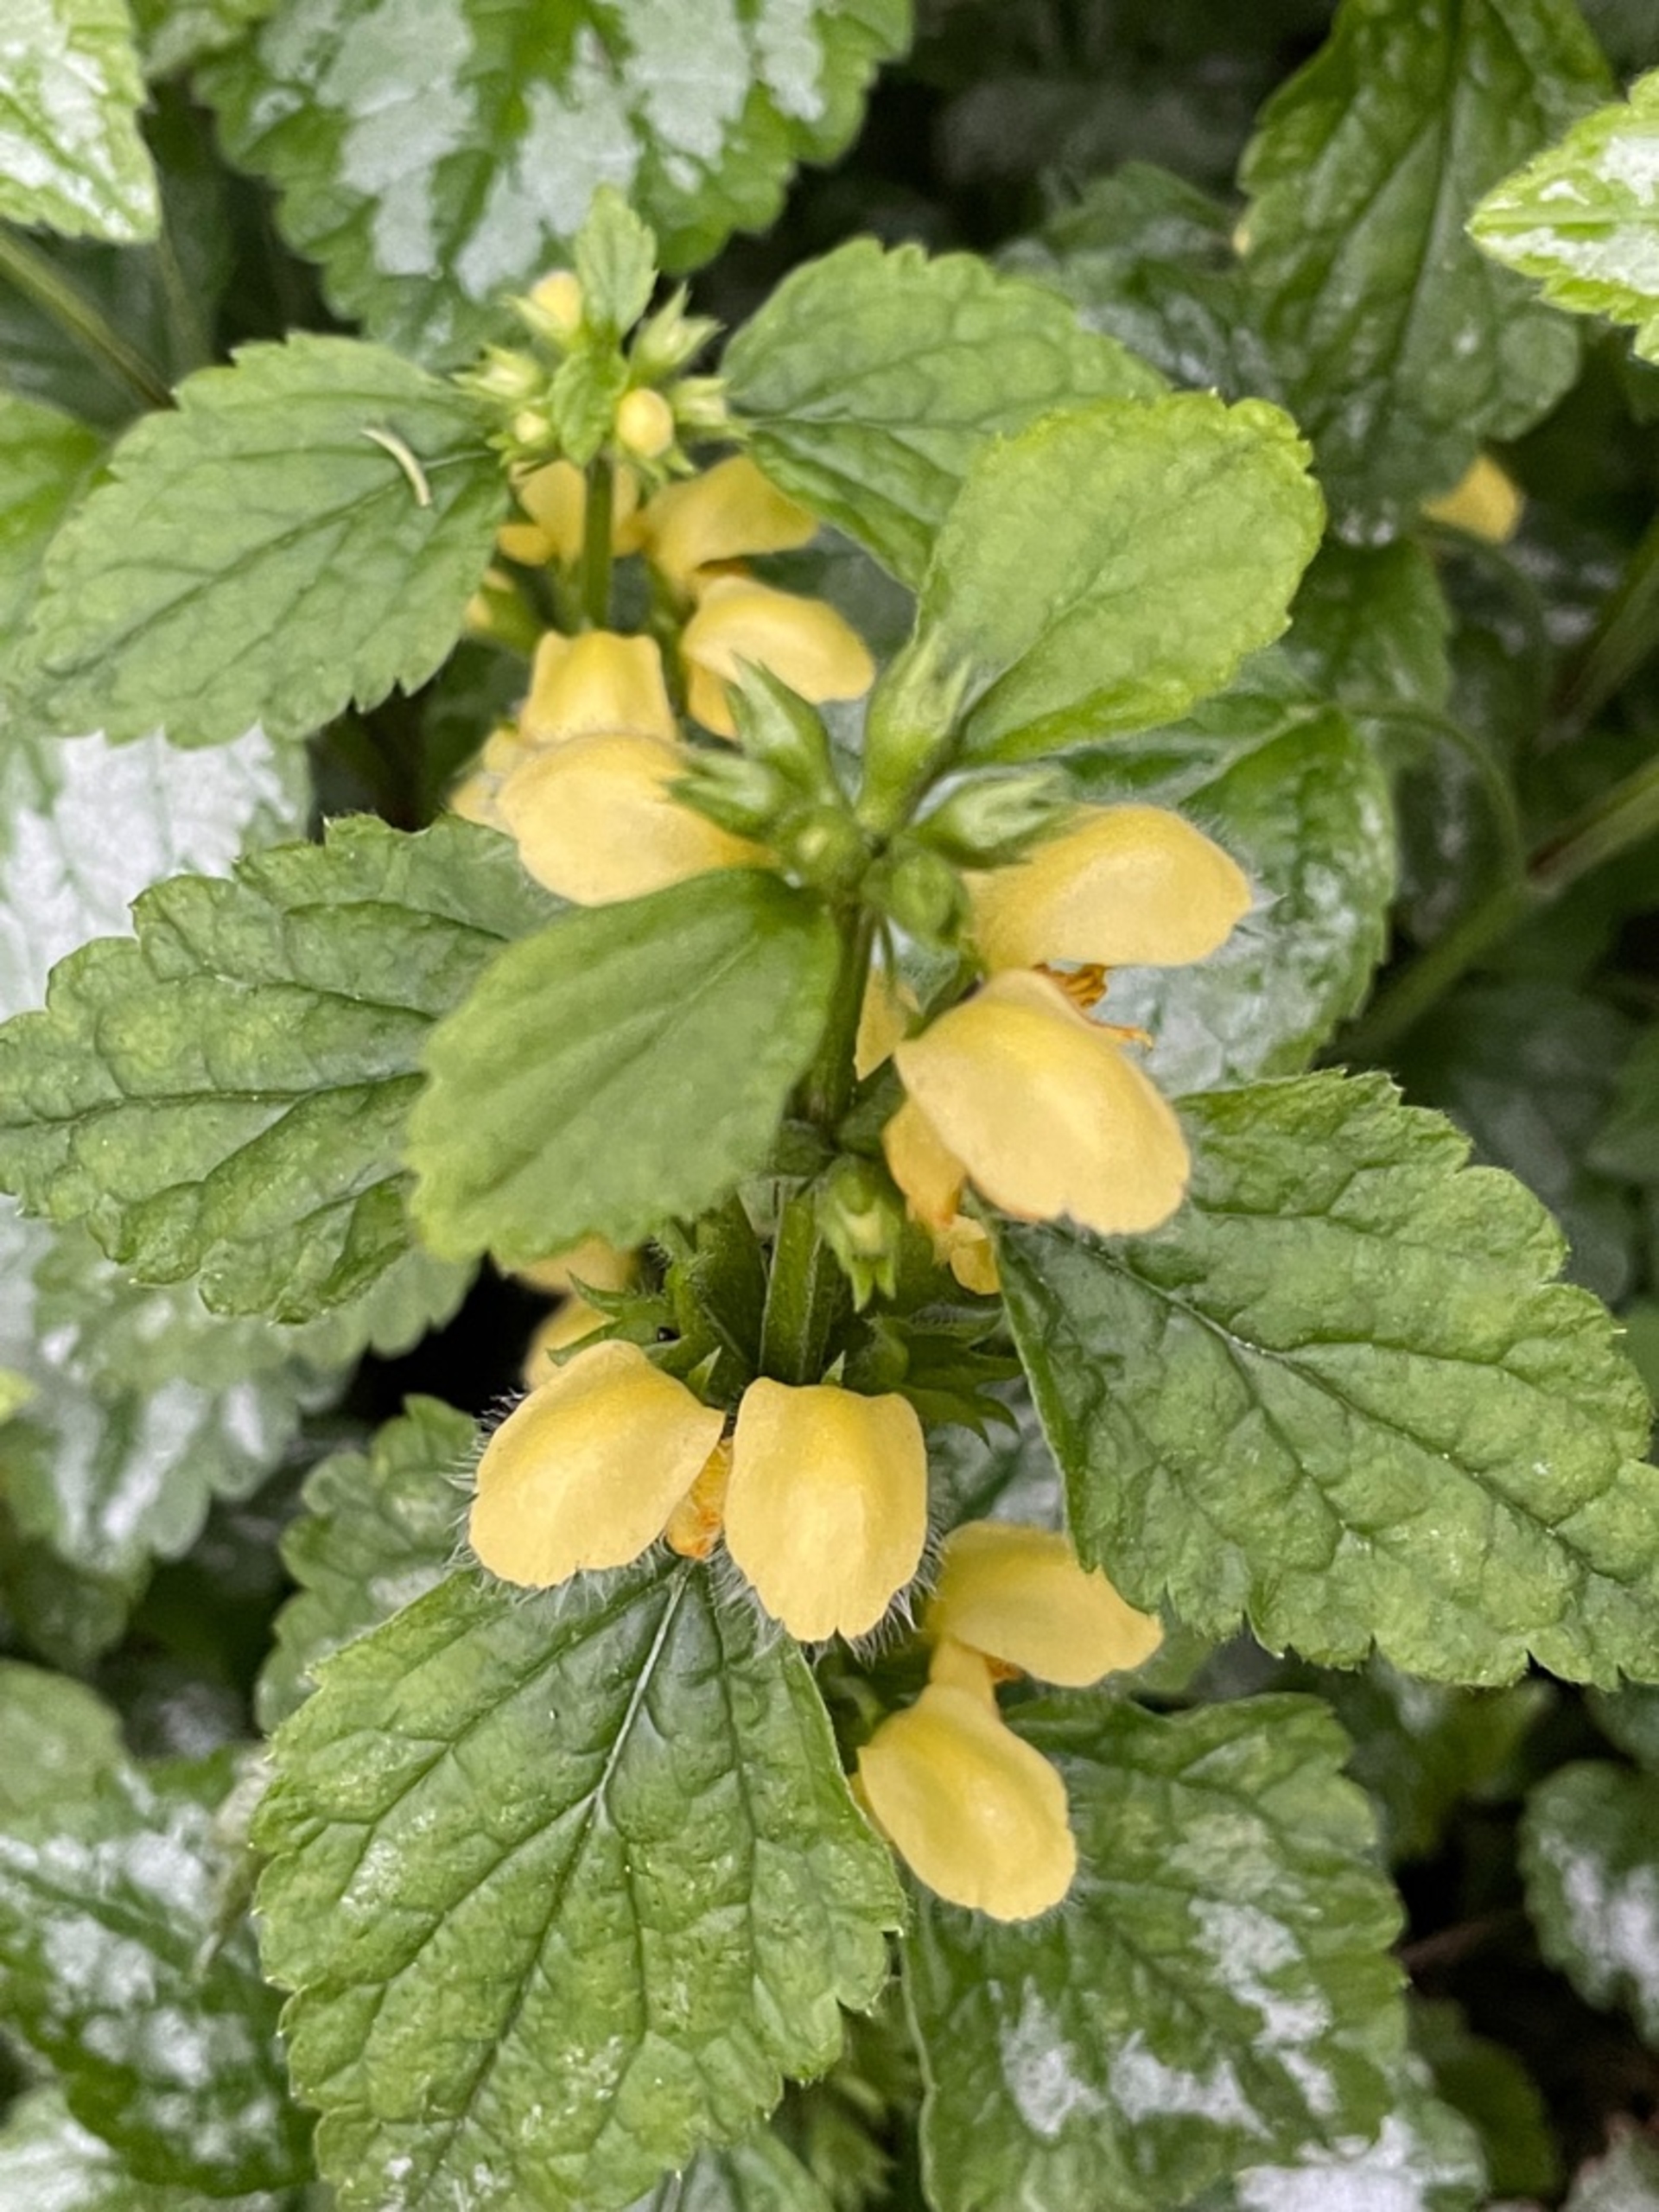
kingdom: Plantae
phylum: Tracheophyta
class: Magnoliopsida
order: Lamiales
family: Lamiaceae
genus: Lamium
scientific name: Lamium galeobdolon
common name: Guldnælde
